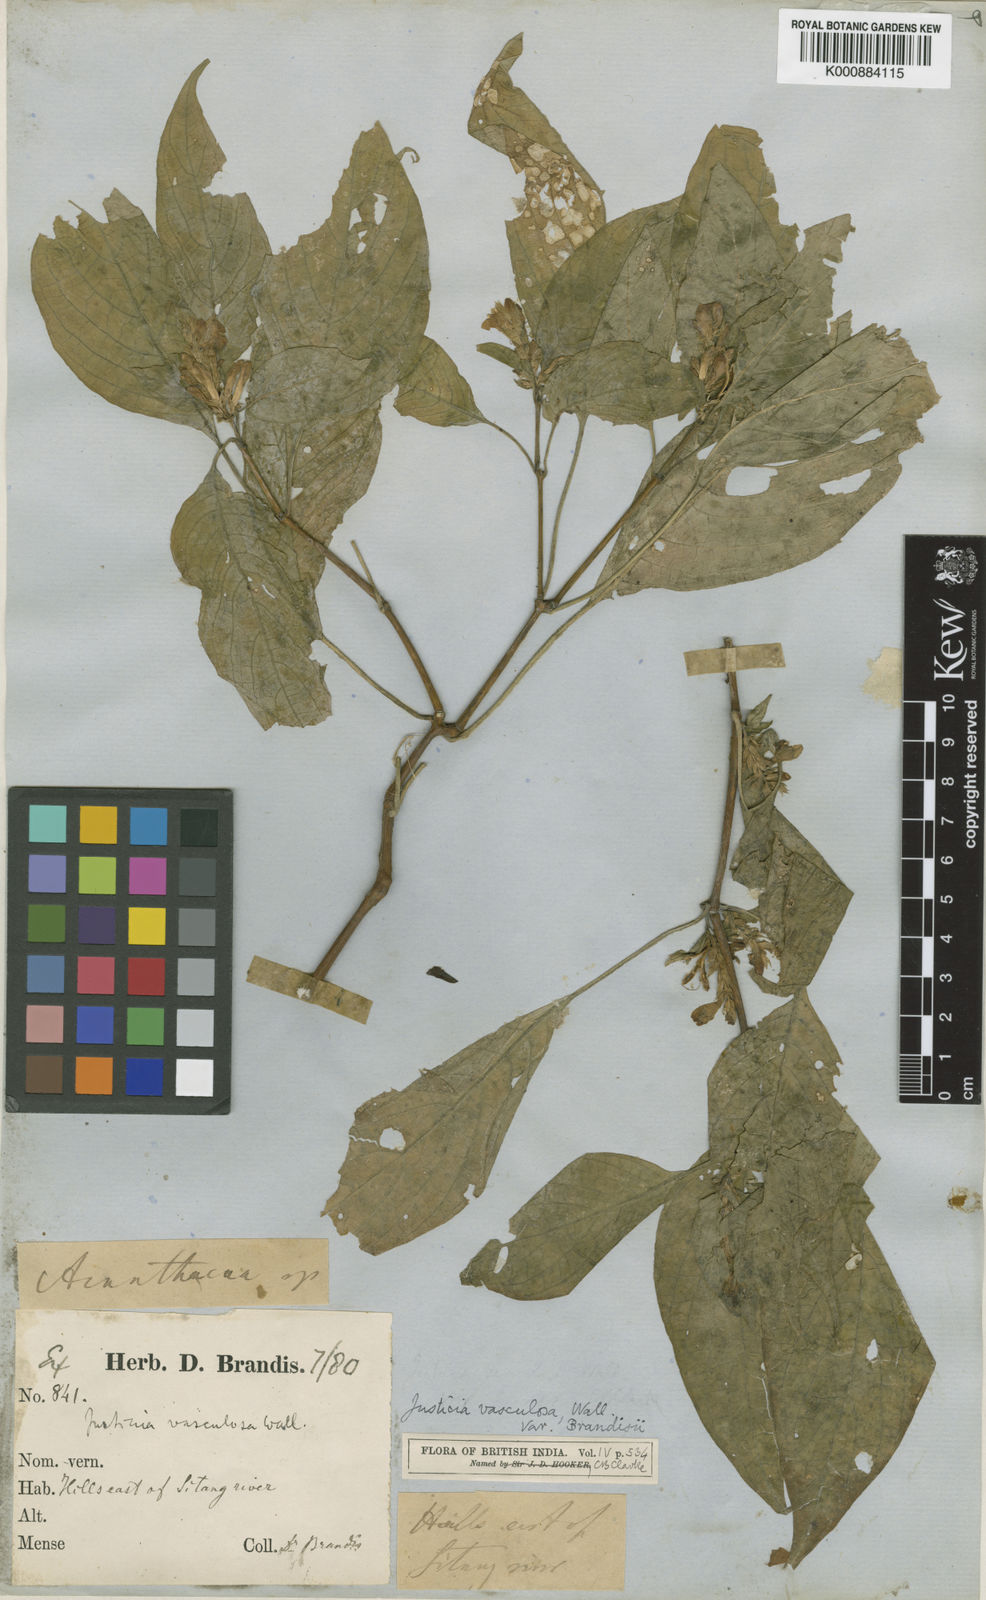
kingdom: Plantae
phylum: Tracheophyta
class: Magnoliopsida
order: Lamiales
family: Acanthaceae
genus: Justicia
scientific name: Justicia
